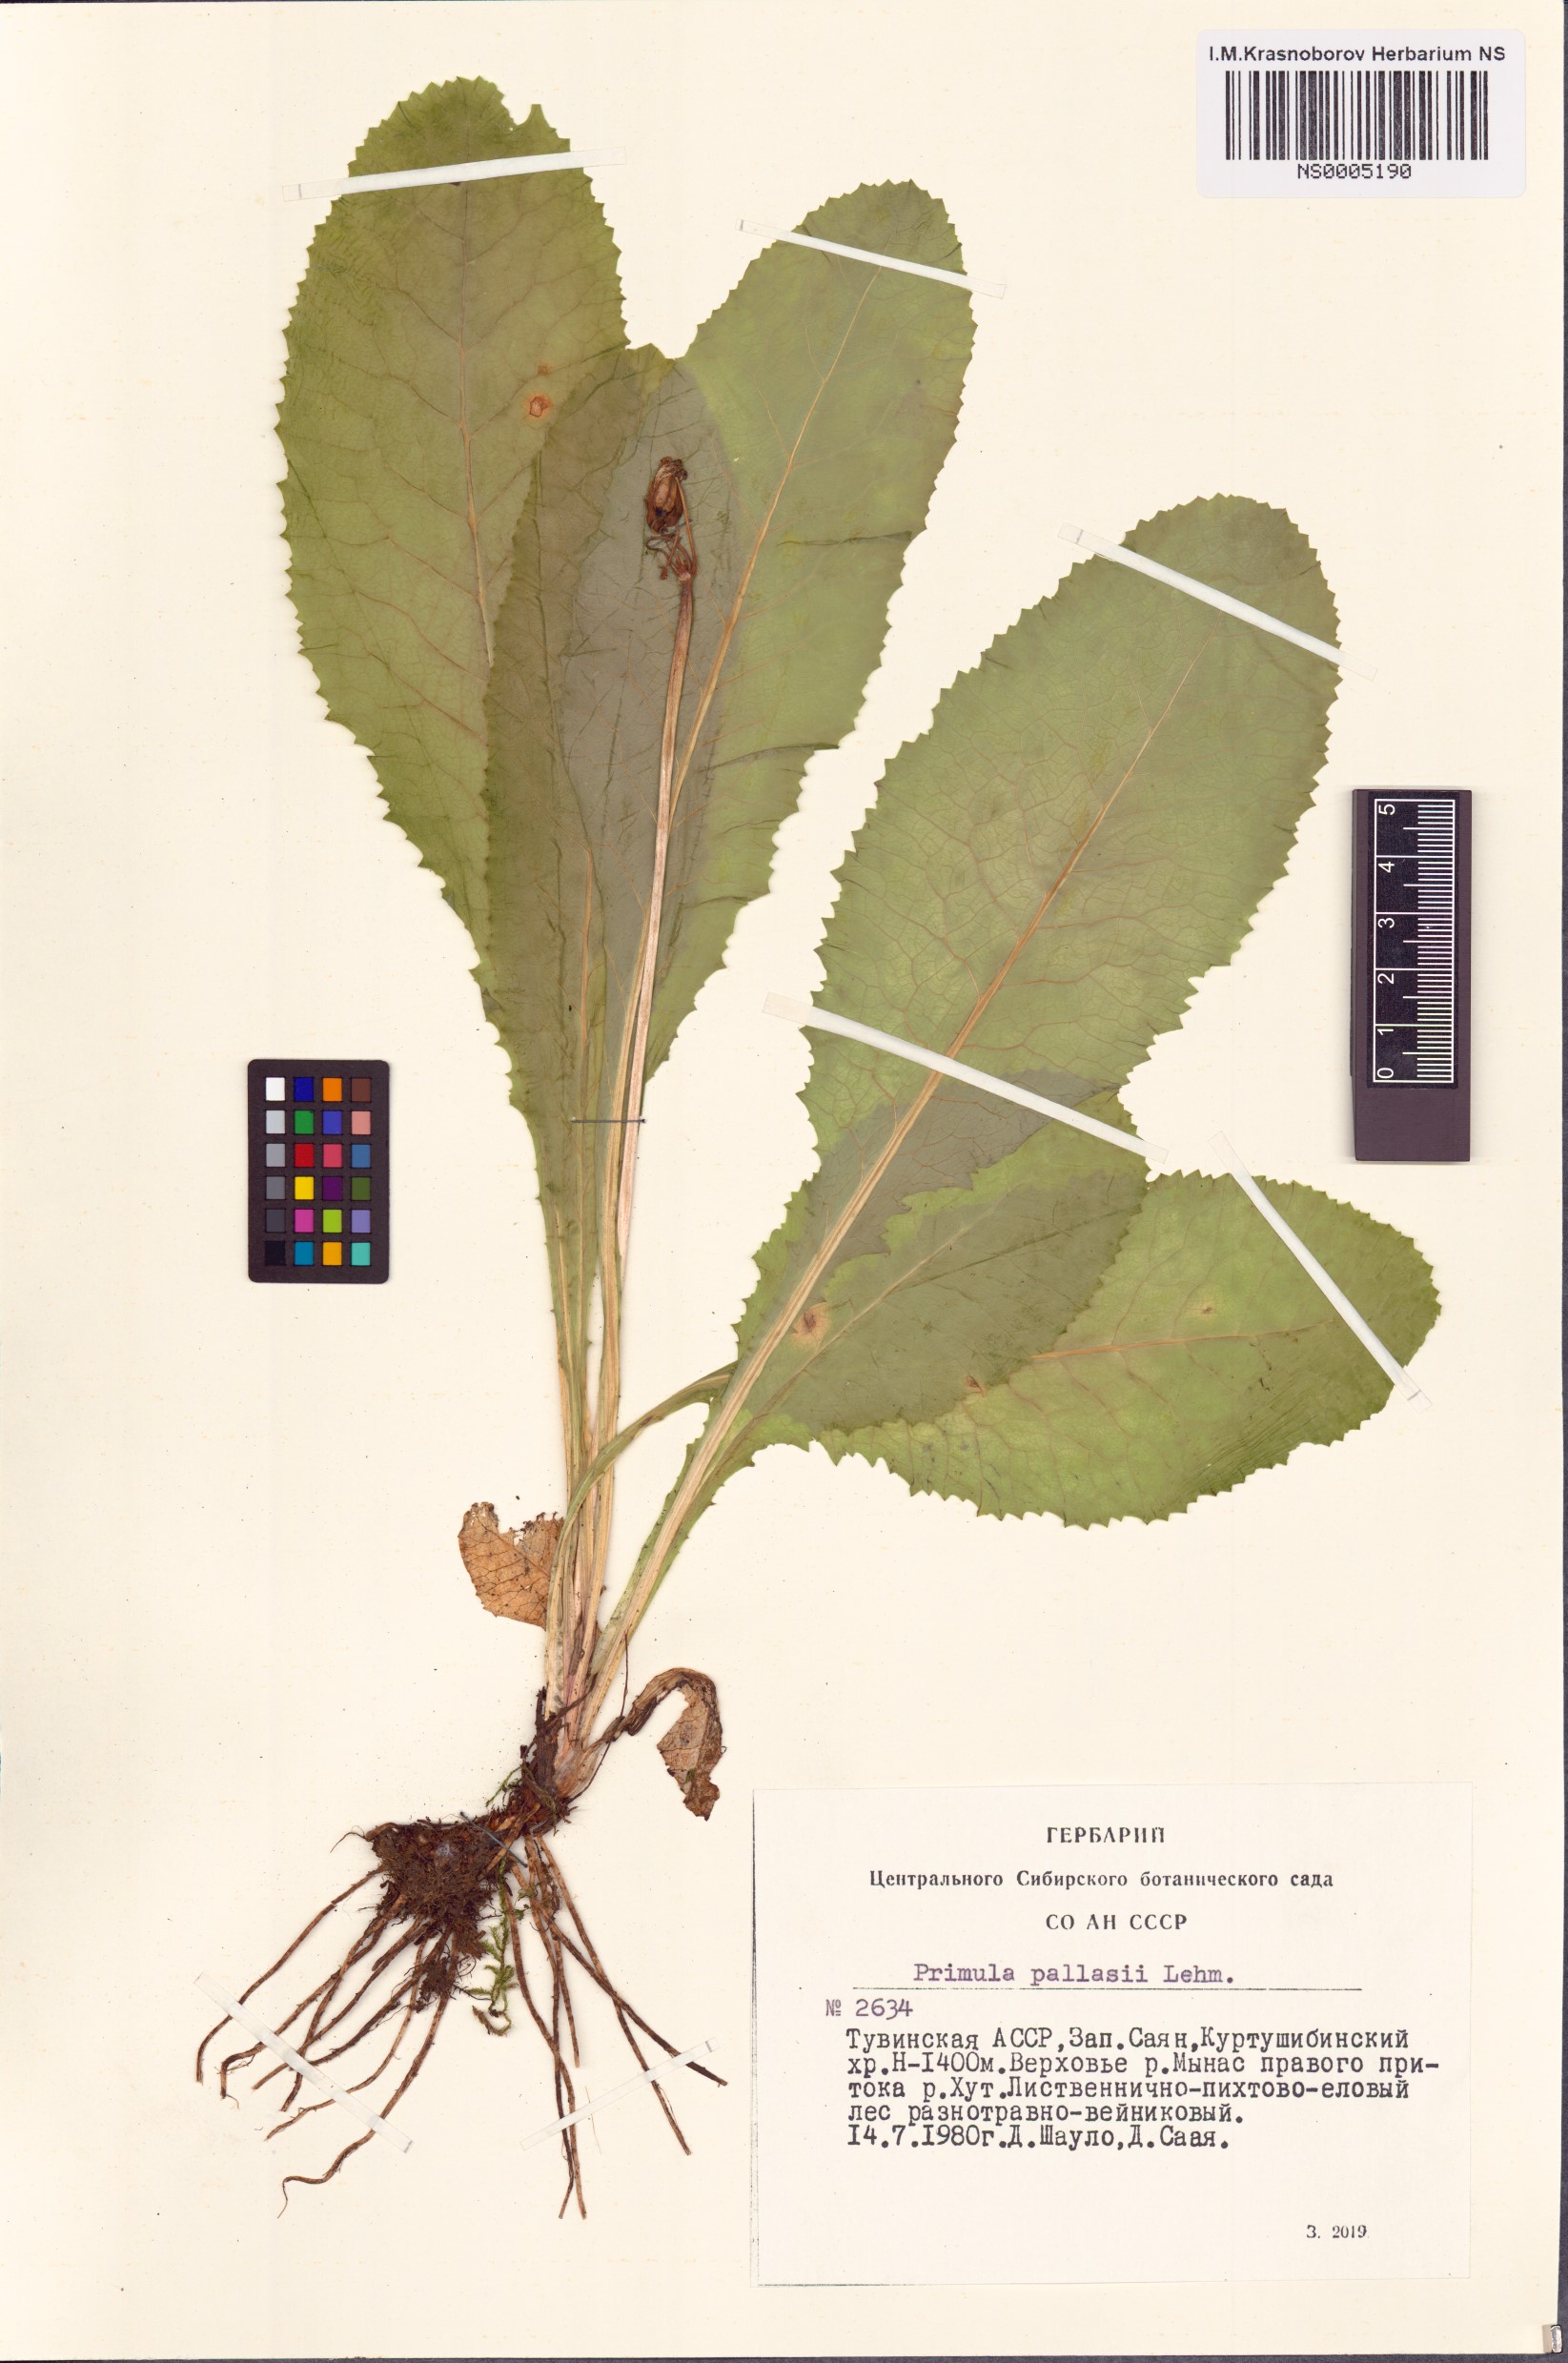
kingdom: Plantae
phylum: Tracheophyta
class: Magnoliopsida
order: Ericales
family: Primulaceae
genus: Primula
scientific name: Primula elatior
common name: Oxlip
